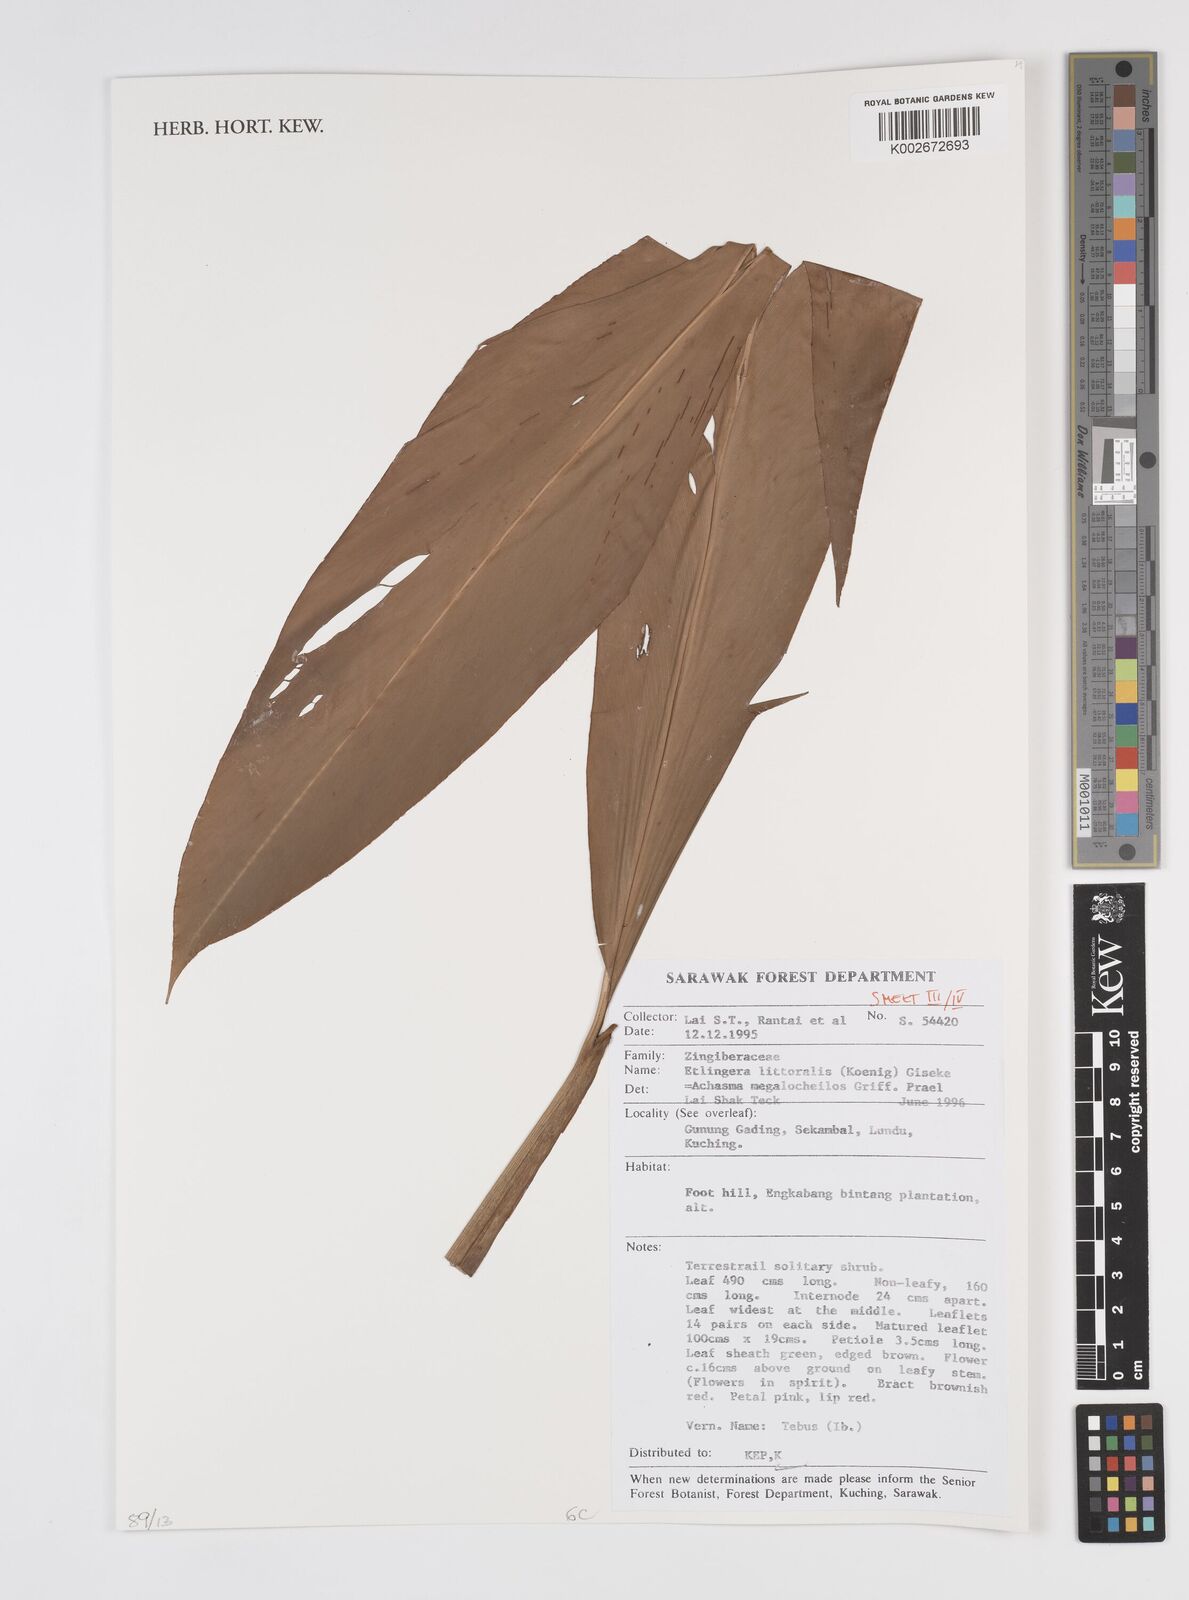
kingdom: Plantae
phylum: Tracheophyta
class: Liliopsida
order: Zingiberales
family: Zingiberaceae
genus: Etlingera
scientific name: Etlingera littoralis
